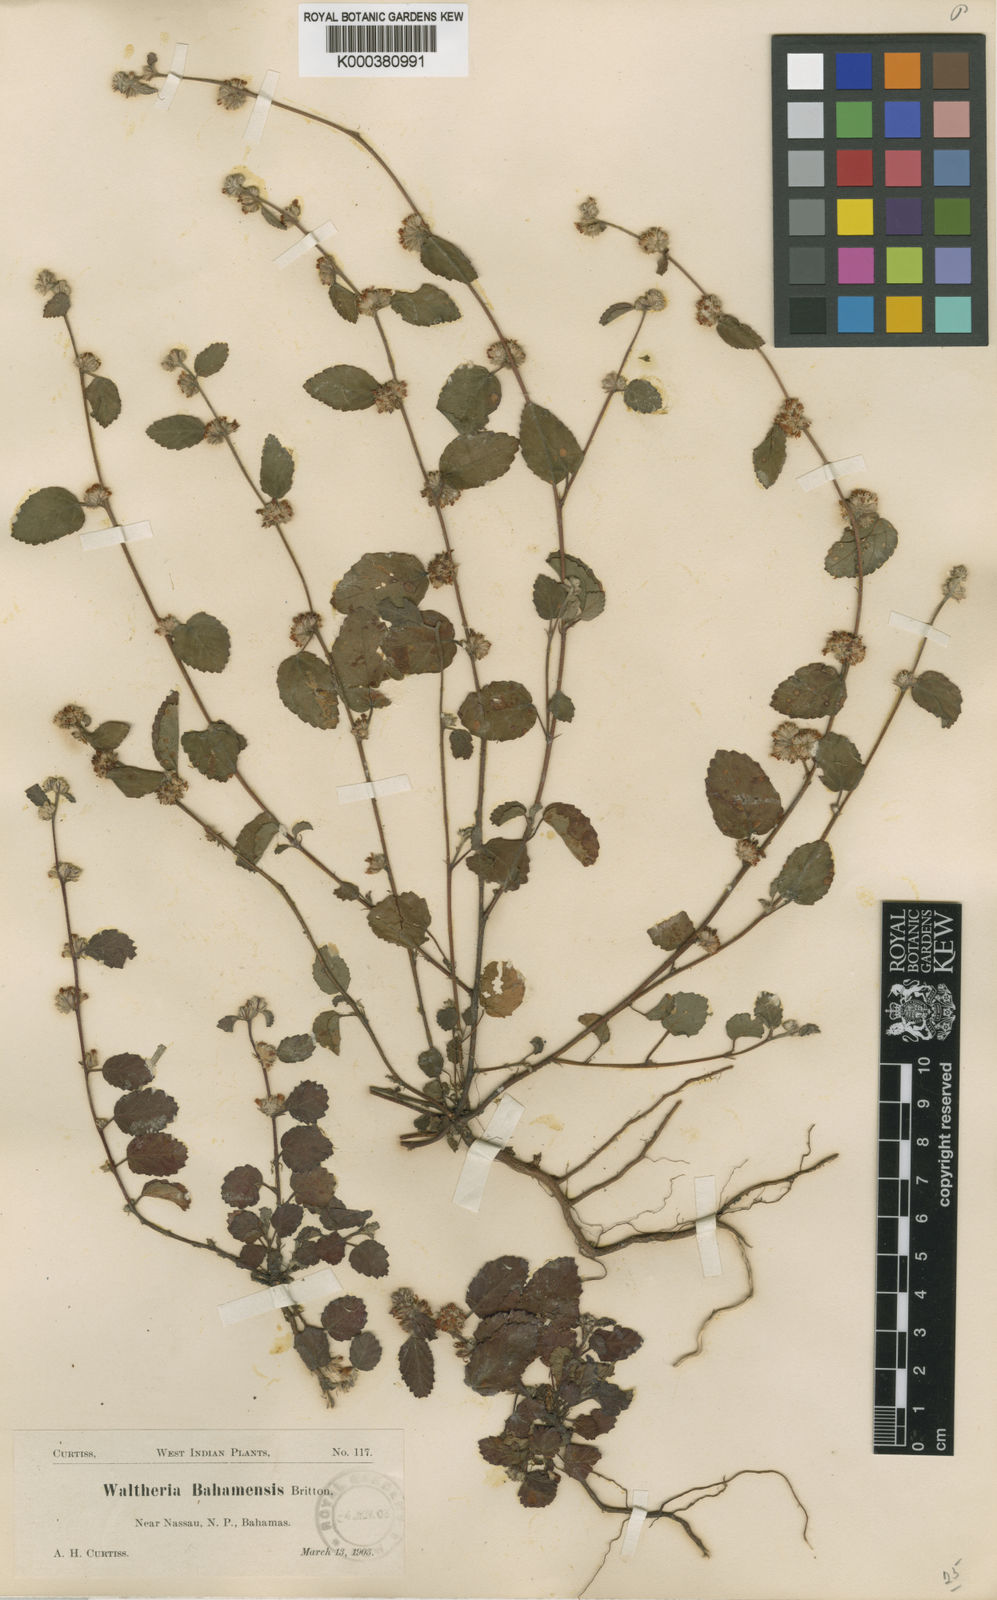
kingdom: Plantae
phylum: Tracheophyta
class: Magnoliopsida
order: Malvales
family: Malvaceae
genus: Waltheria
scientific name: Waltheria bahamensis
